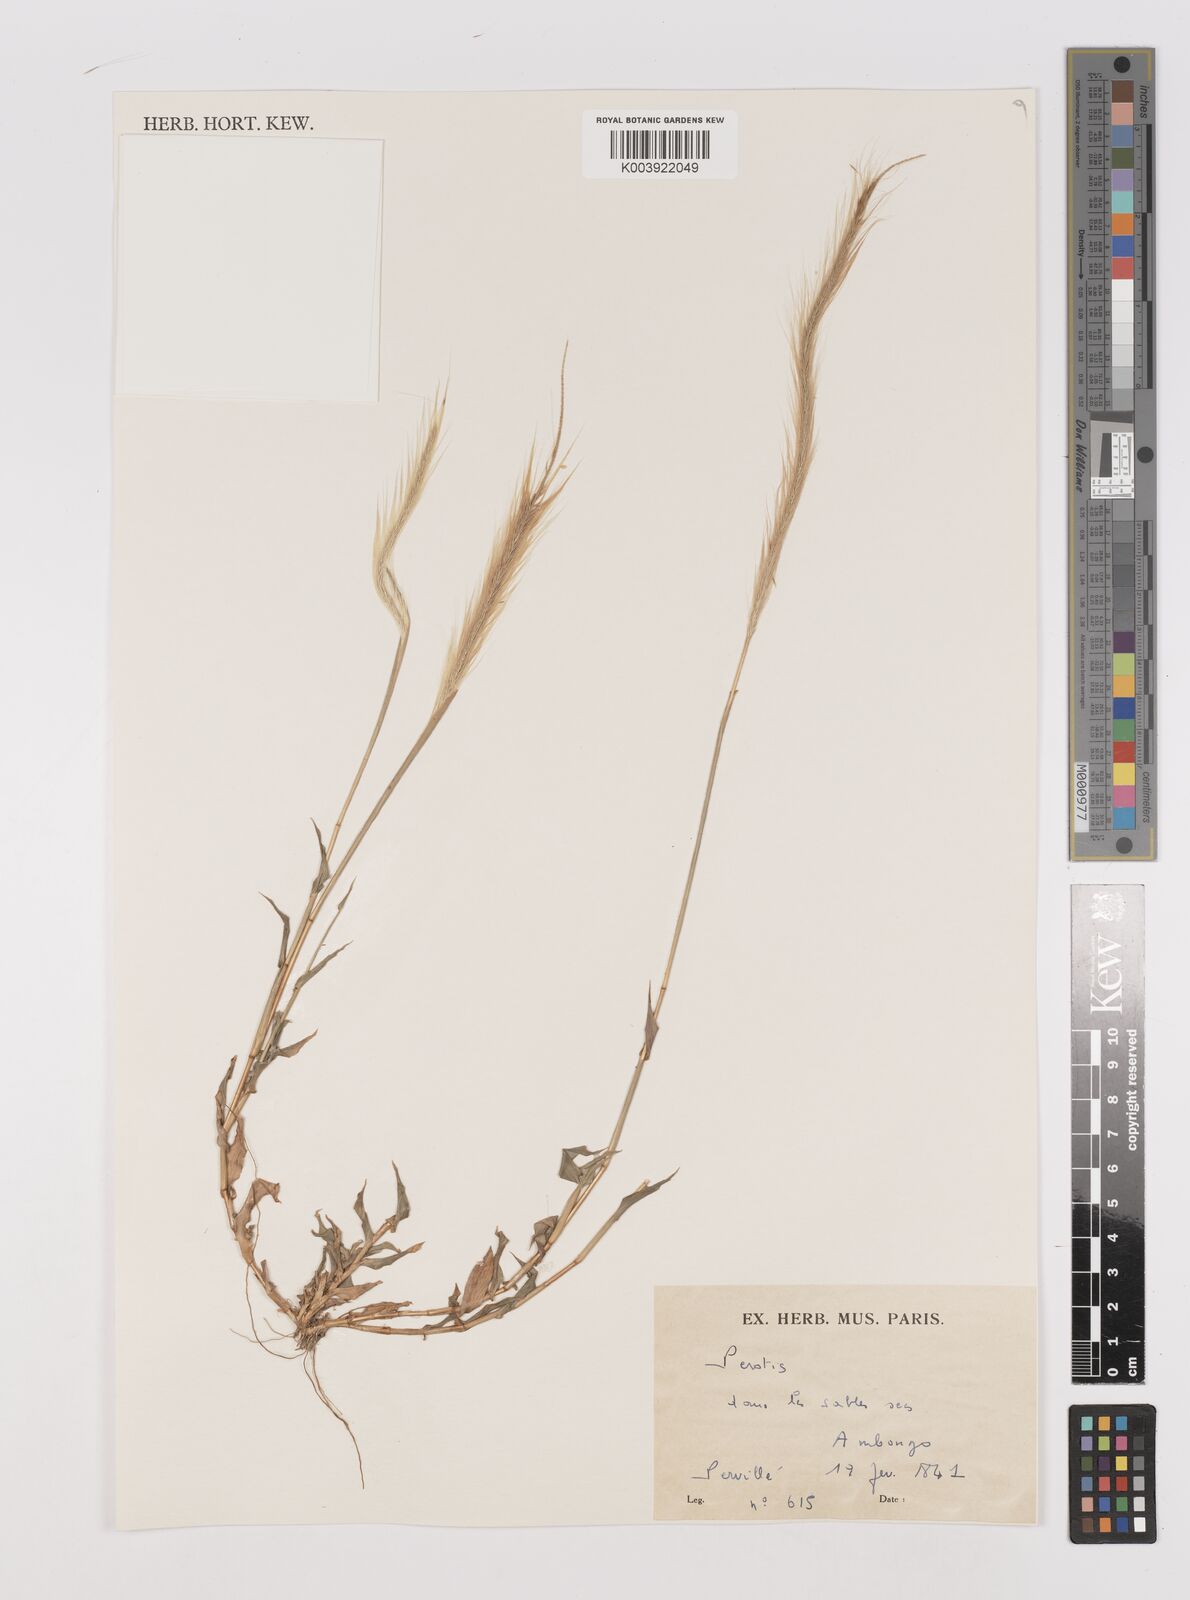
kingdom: Plantae
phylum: Tracheophyta
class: Liliopsida
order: Poales
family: Poaceae
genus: Perotis
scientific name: Perotis
